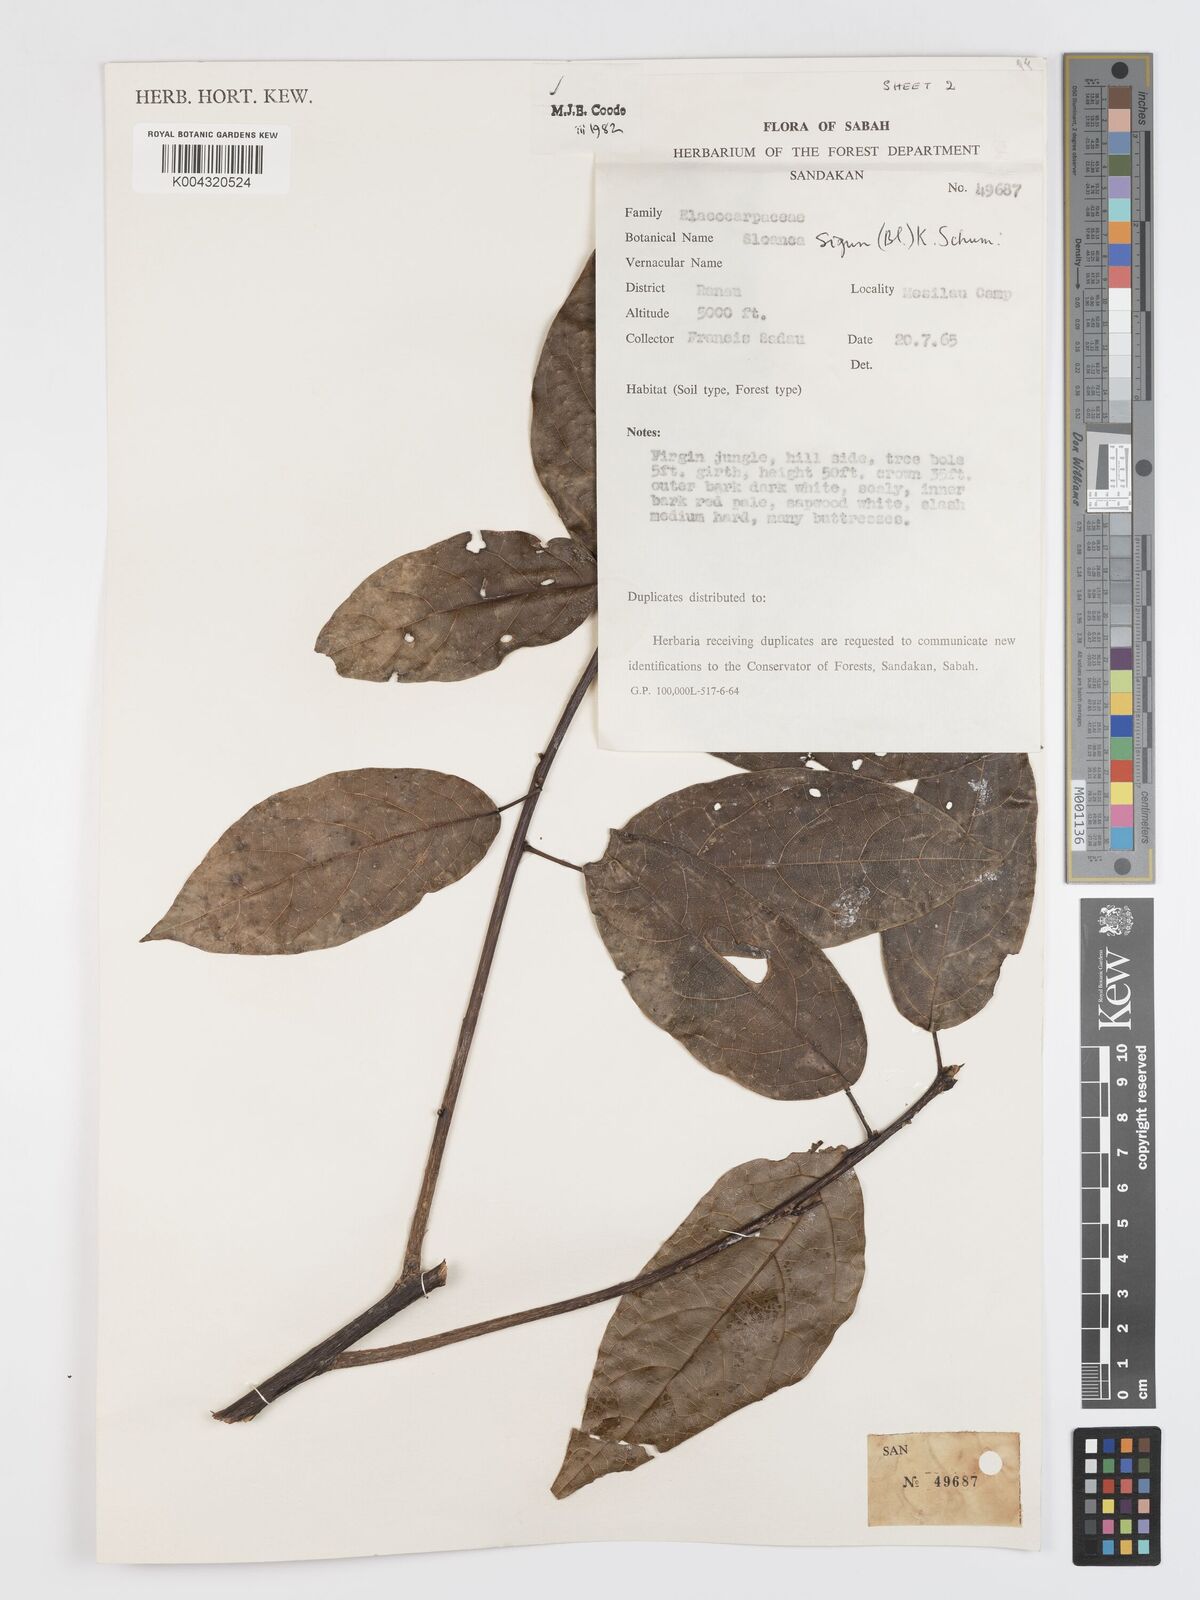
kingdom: Plantae
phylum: Tracheophyta
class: Magnoliopsida
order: Oxalidales
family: Elaeocarpaceae
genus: Sloanea
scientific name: Sloanea sigun
